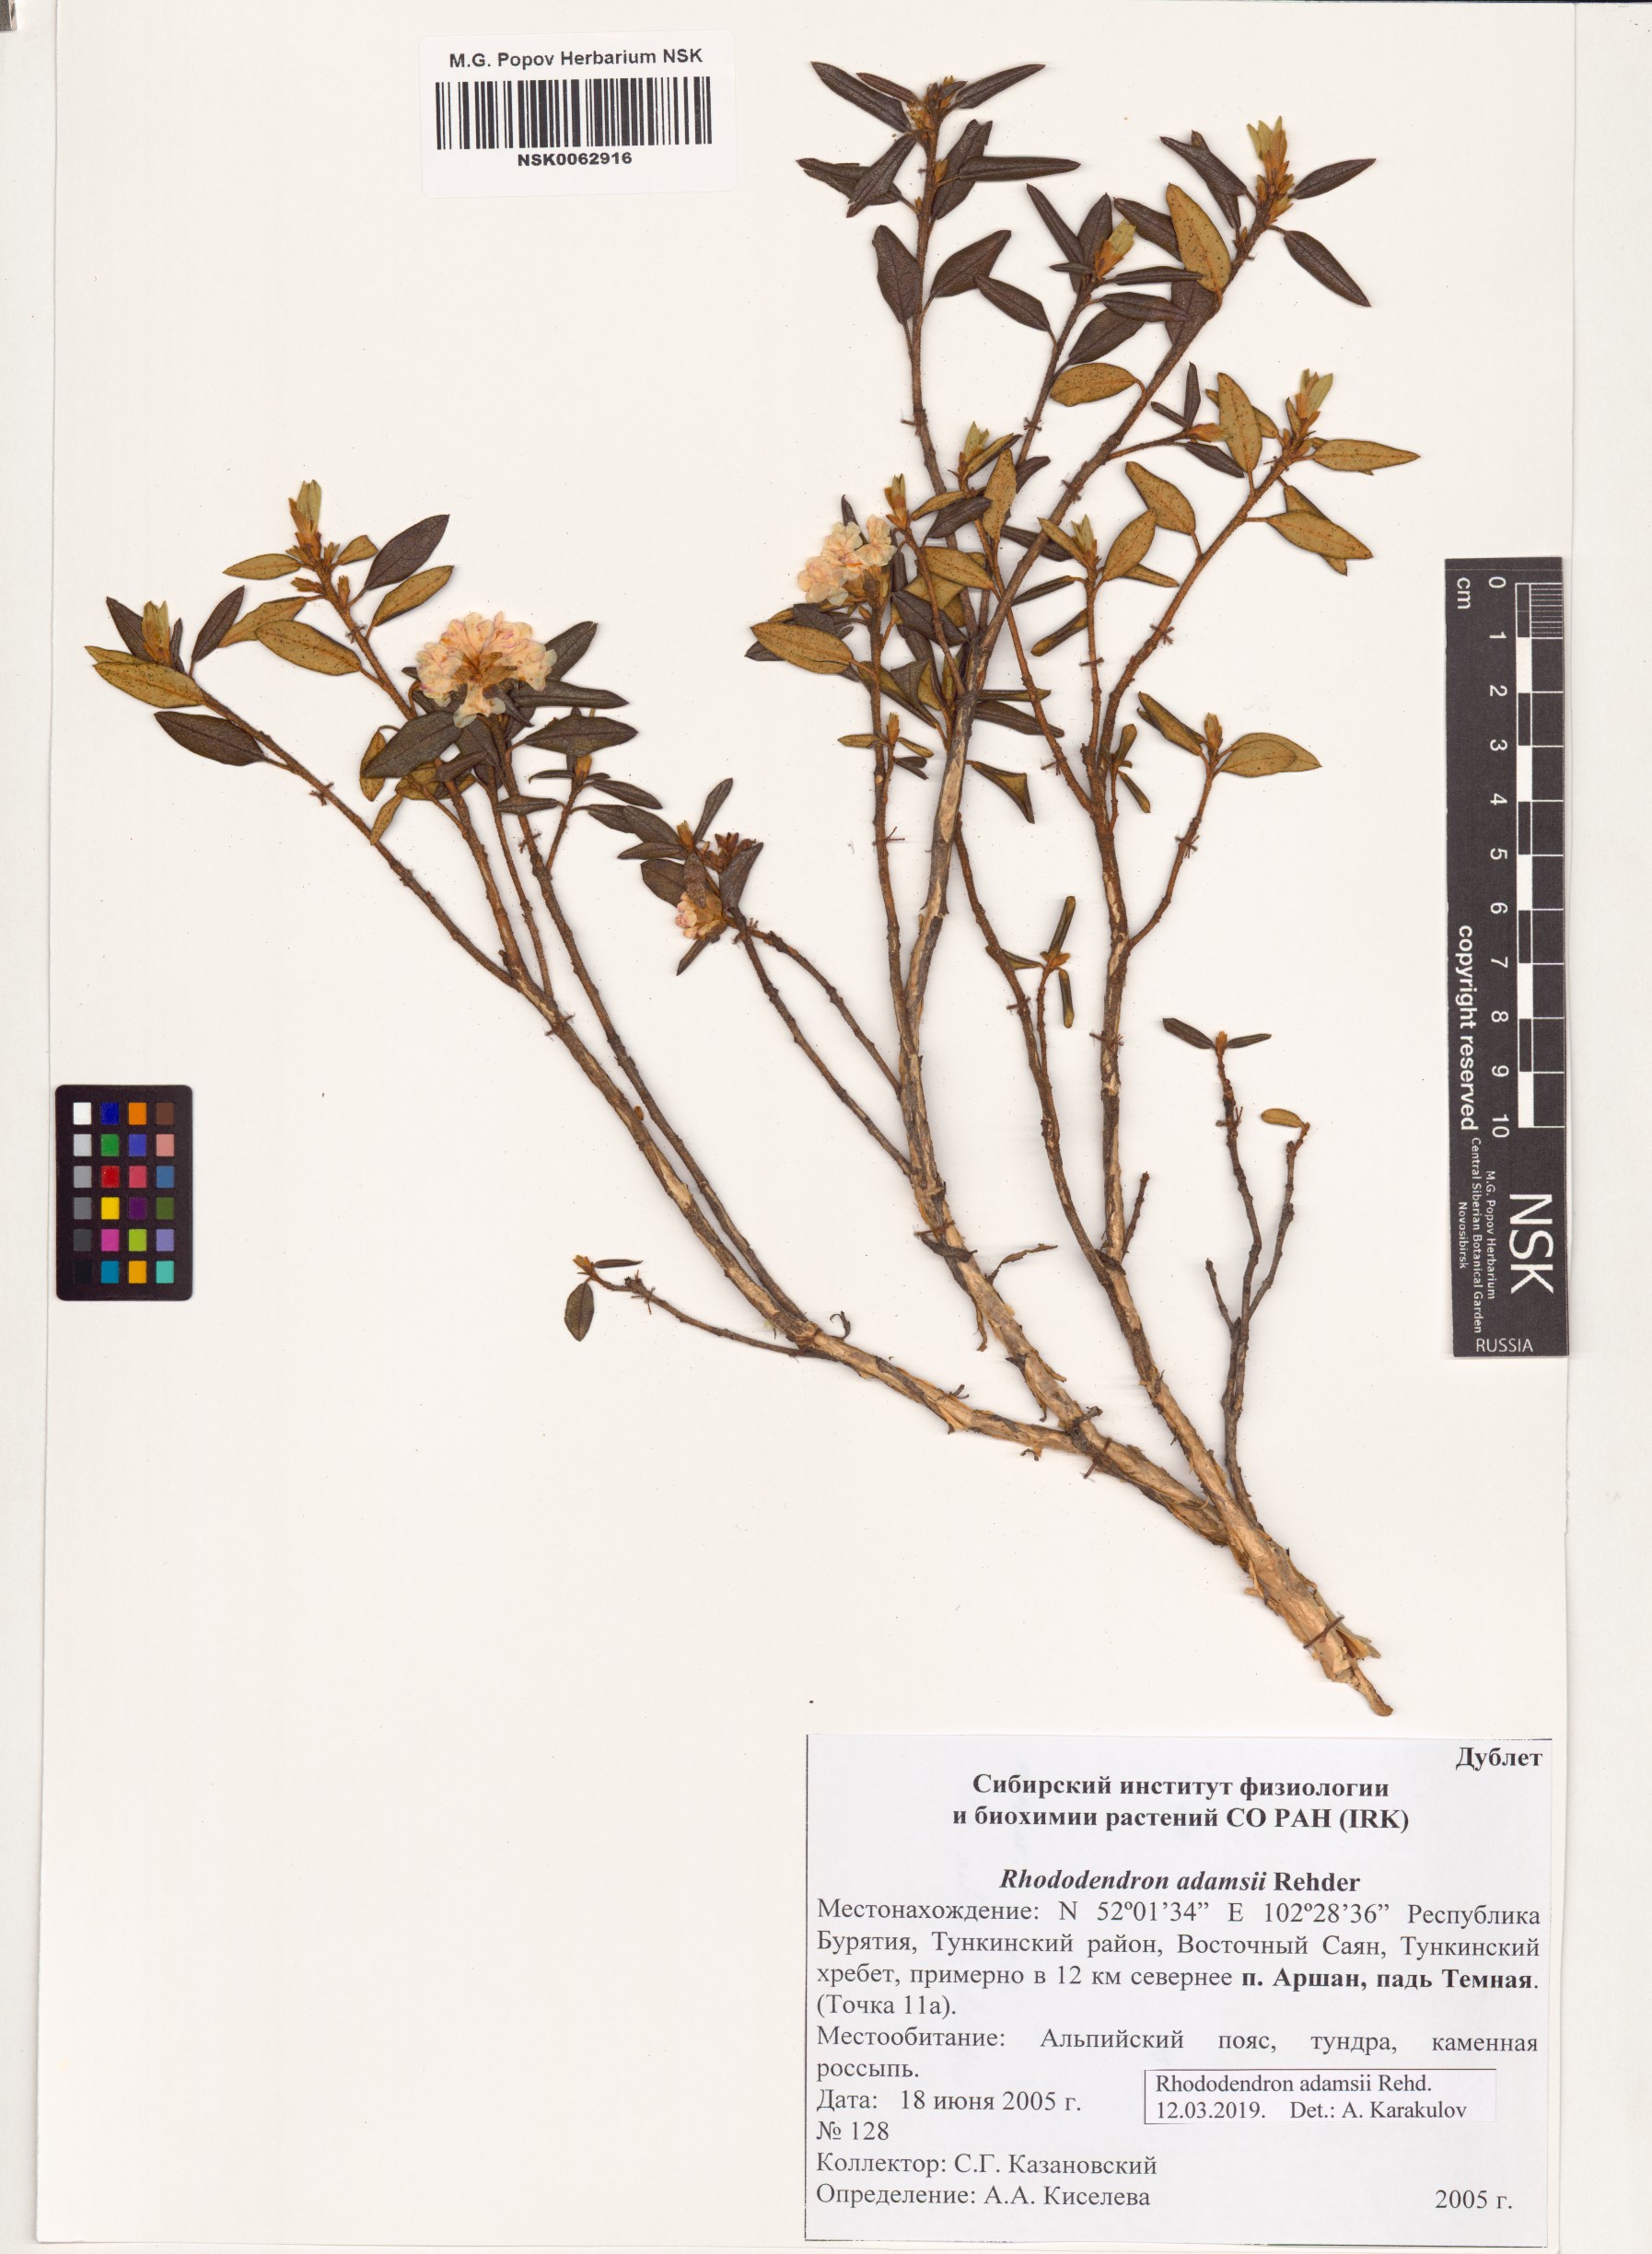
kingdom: Plantae
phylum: Tracheophyta
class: Magnoliopsida
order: Ericales
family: Ericaceae
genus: Rhododendron
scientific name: Rhododendron adamsii
